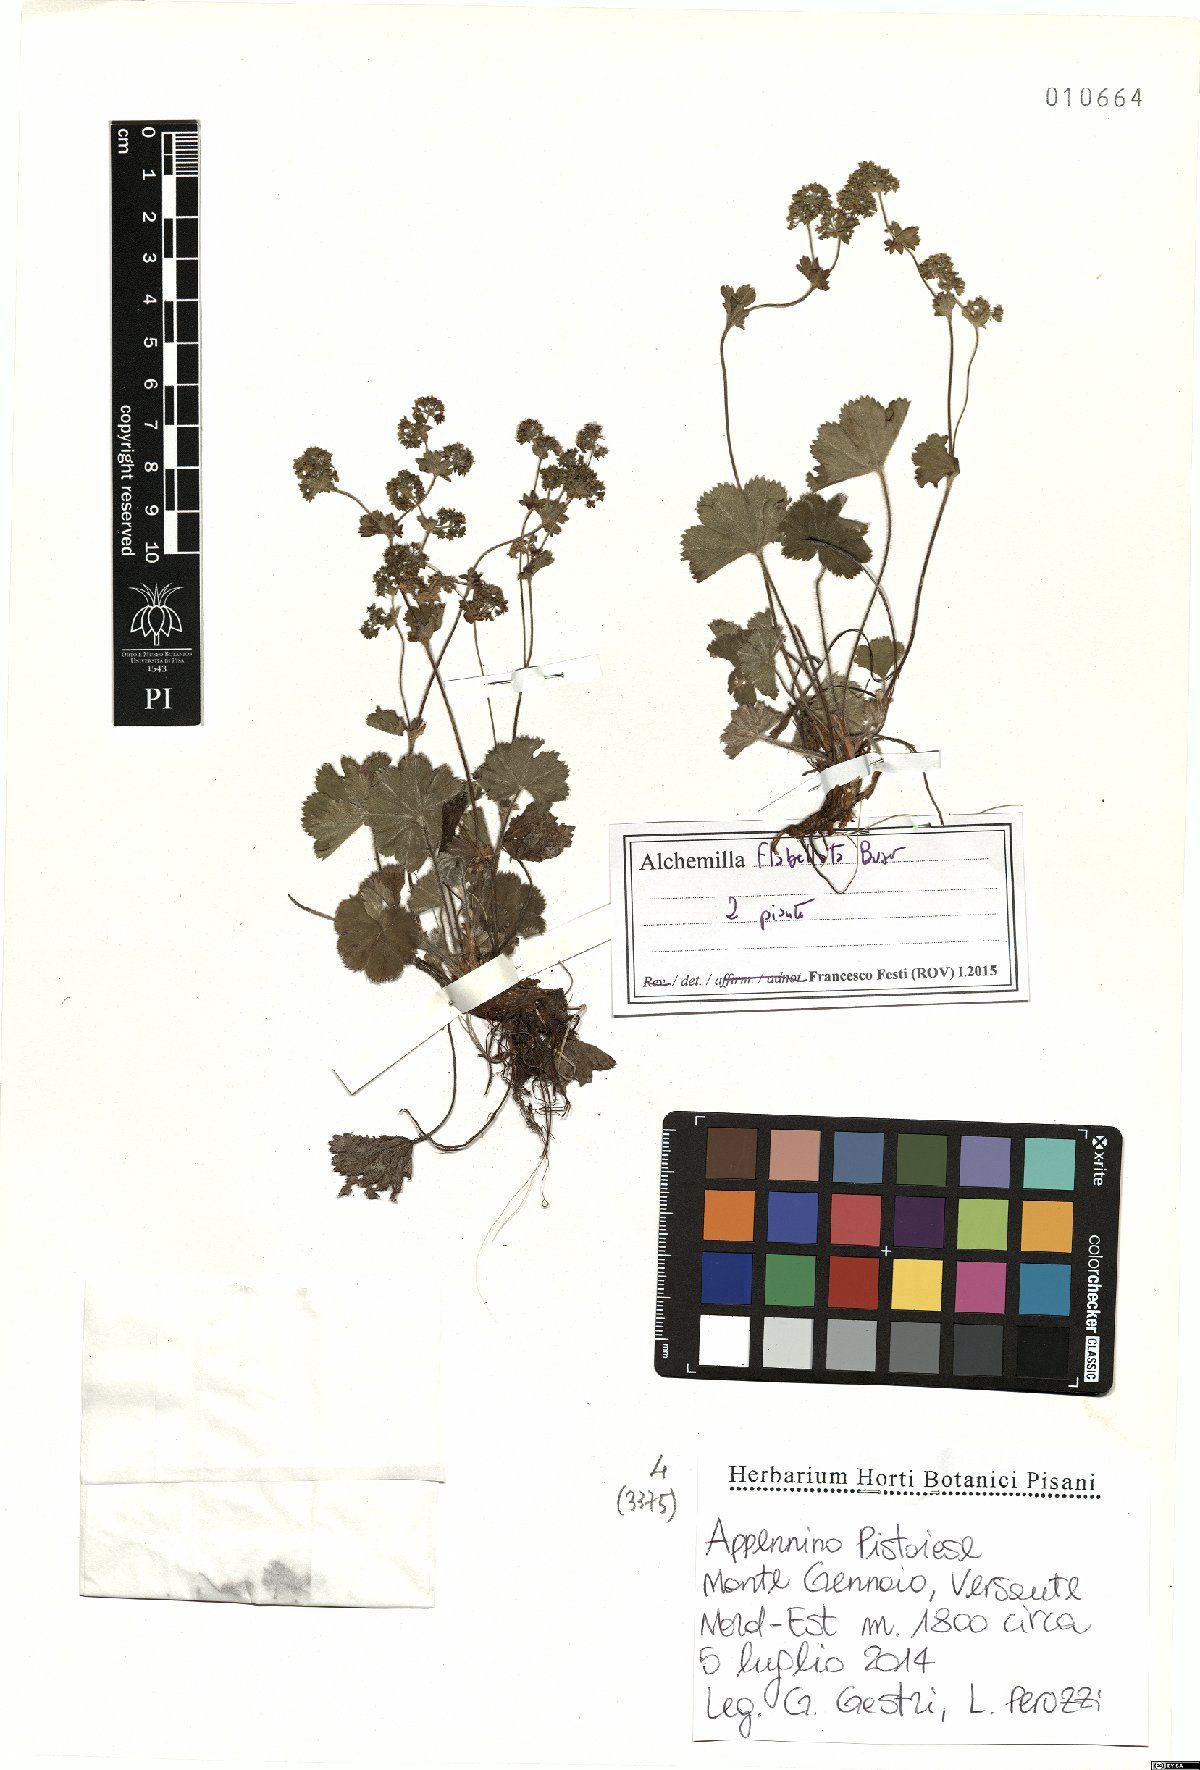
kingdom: Plantae
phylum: Tracheophyta
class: Magnoliopsida
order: Rosales
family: Rosaceae
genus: Alchemilla
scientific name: Alchemilla flabellata
